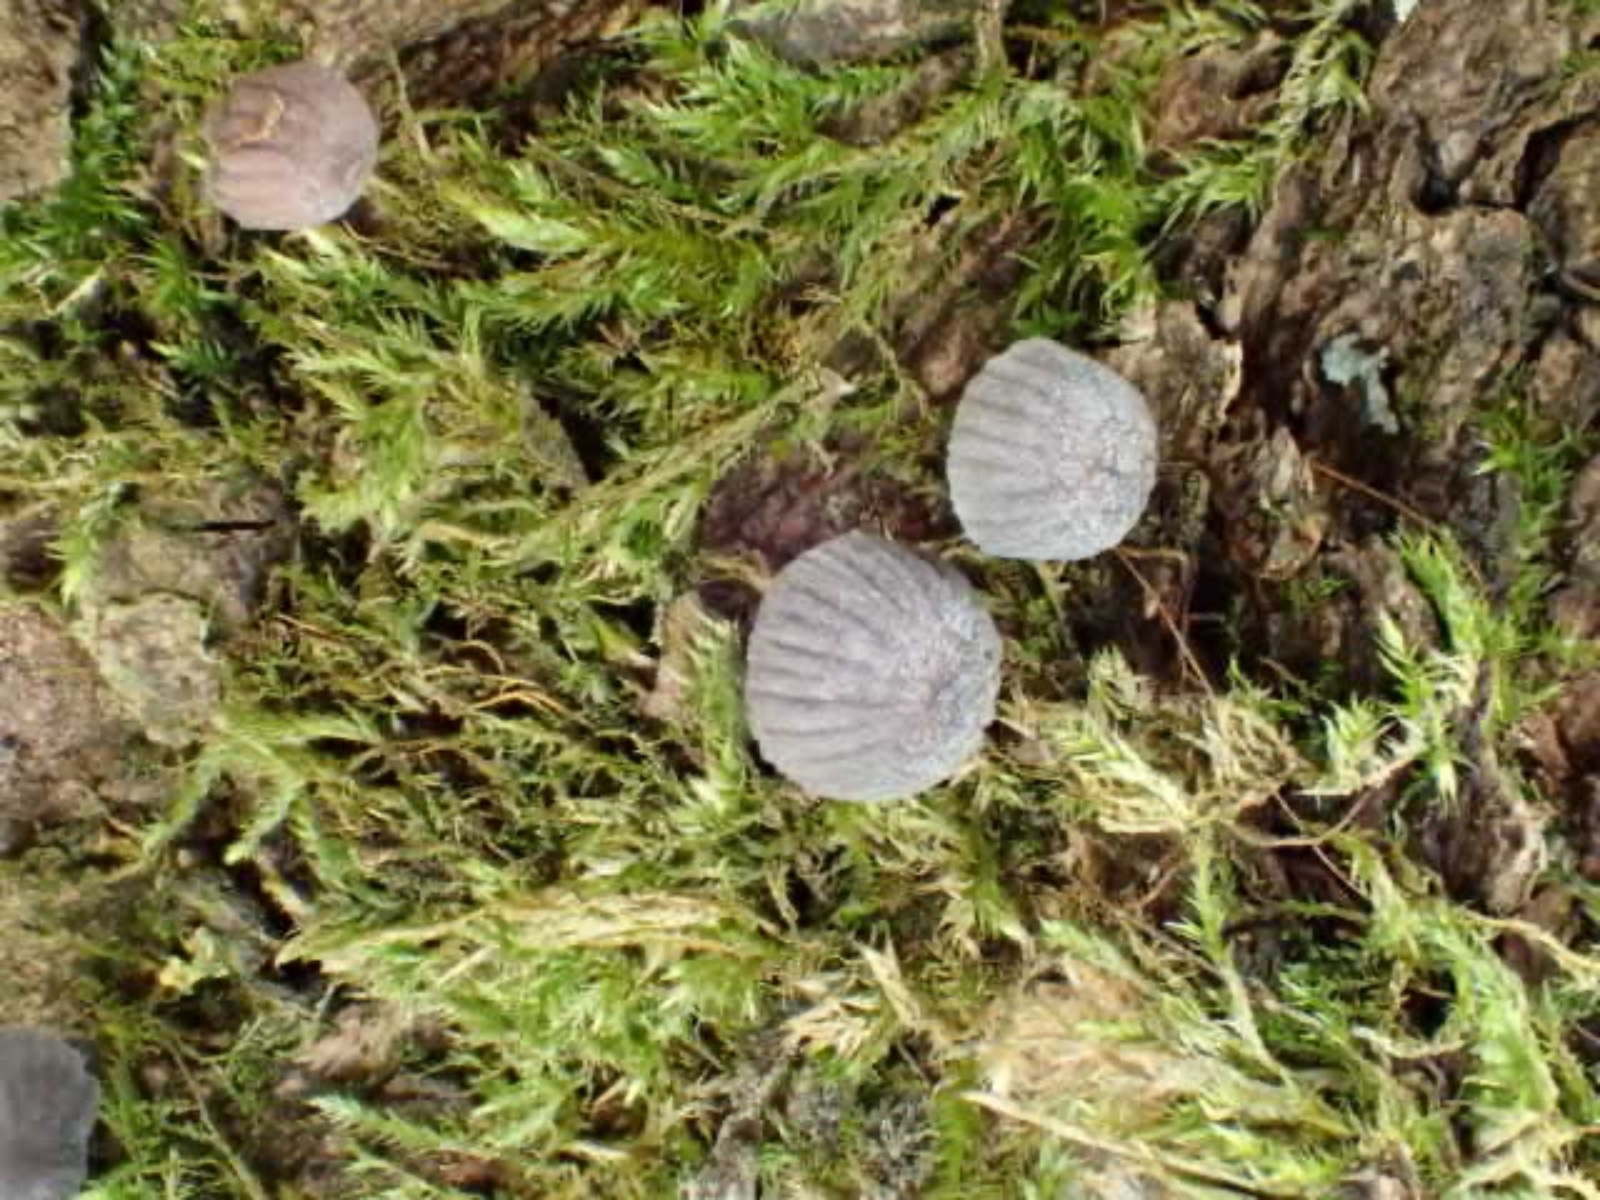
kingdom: Fungi
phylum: Basidiomycota
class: Agaricomycetes
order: Agaricales
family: Mycenaceae
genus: Mycena
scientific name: Mycena pseudocorticola
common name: gråblå bark-huesvamp
